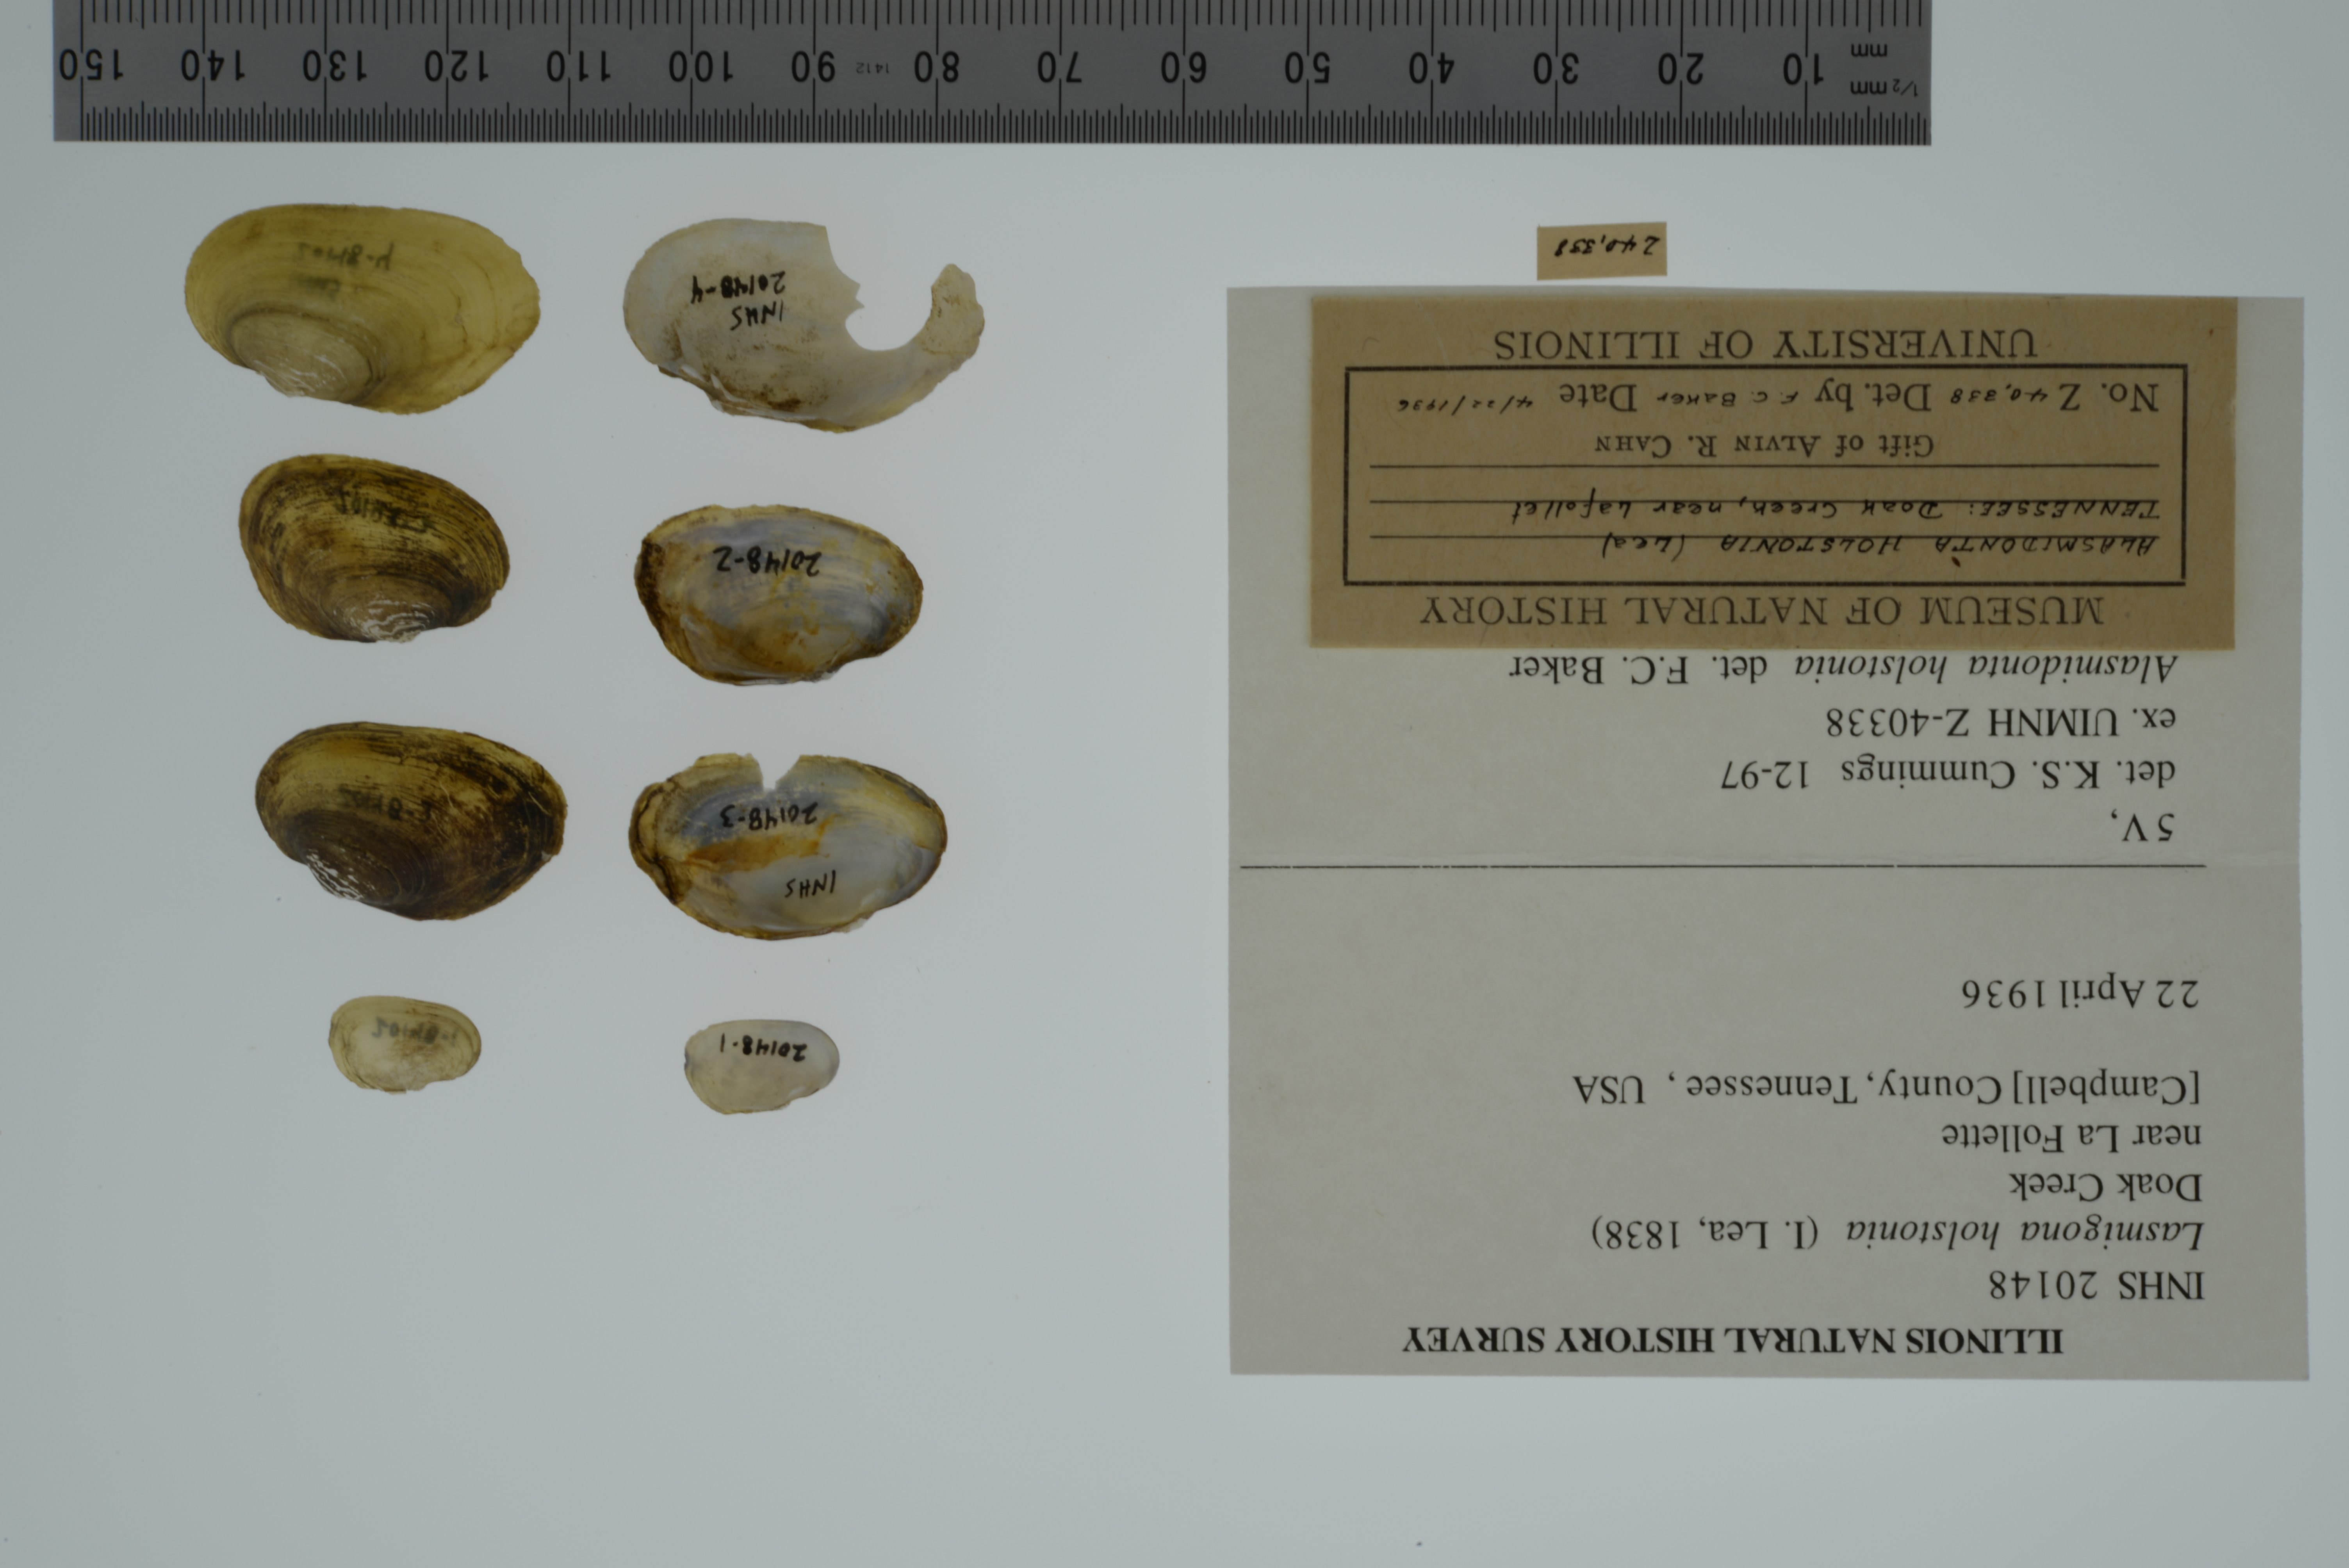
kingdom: Animalia
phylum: Mollusca
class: Bivalvia
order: Unionida
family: Unionidae
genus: Lasmigona
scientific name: Lasmigona holstonia
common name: Tennessee heelsplitter
